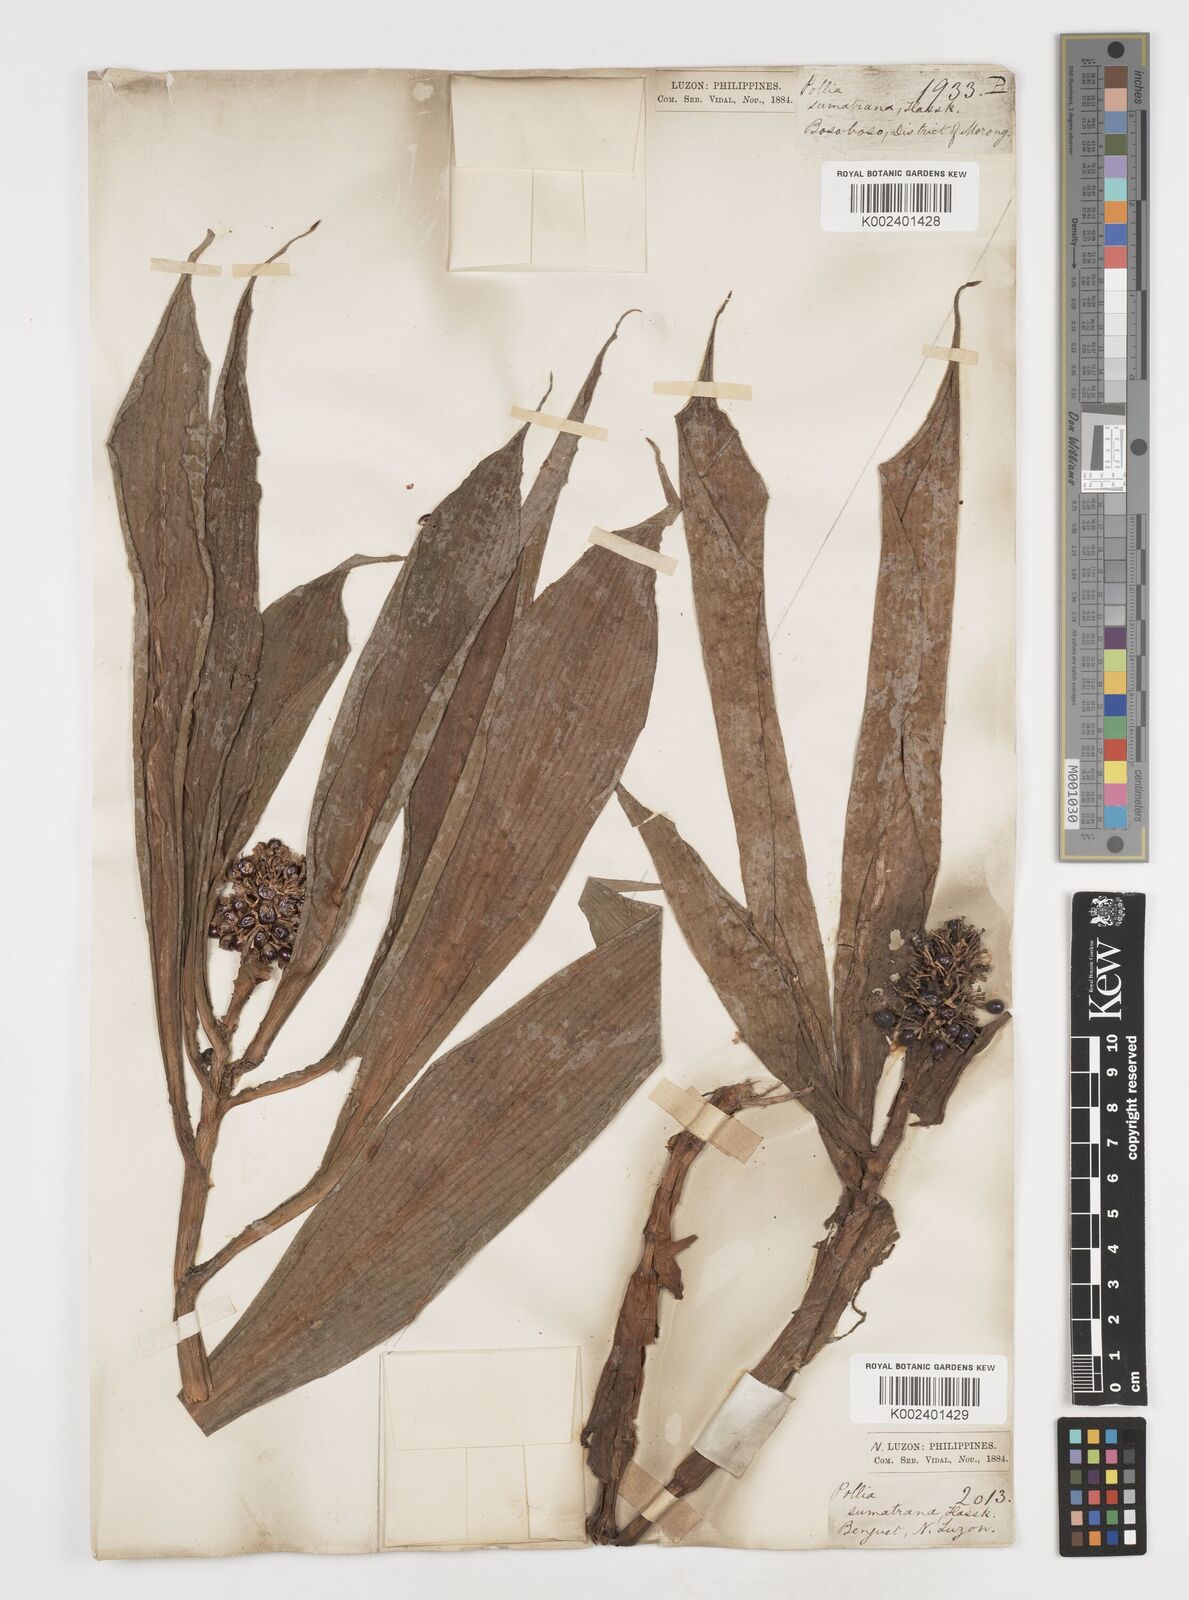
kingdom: Plantae
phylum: Tracheophyta
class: Liliopsida
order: Commelinales
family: Commelinaceae
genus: Pollia
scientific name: Pollia sumatrana
